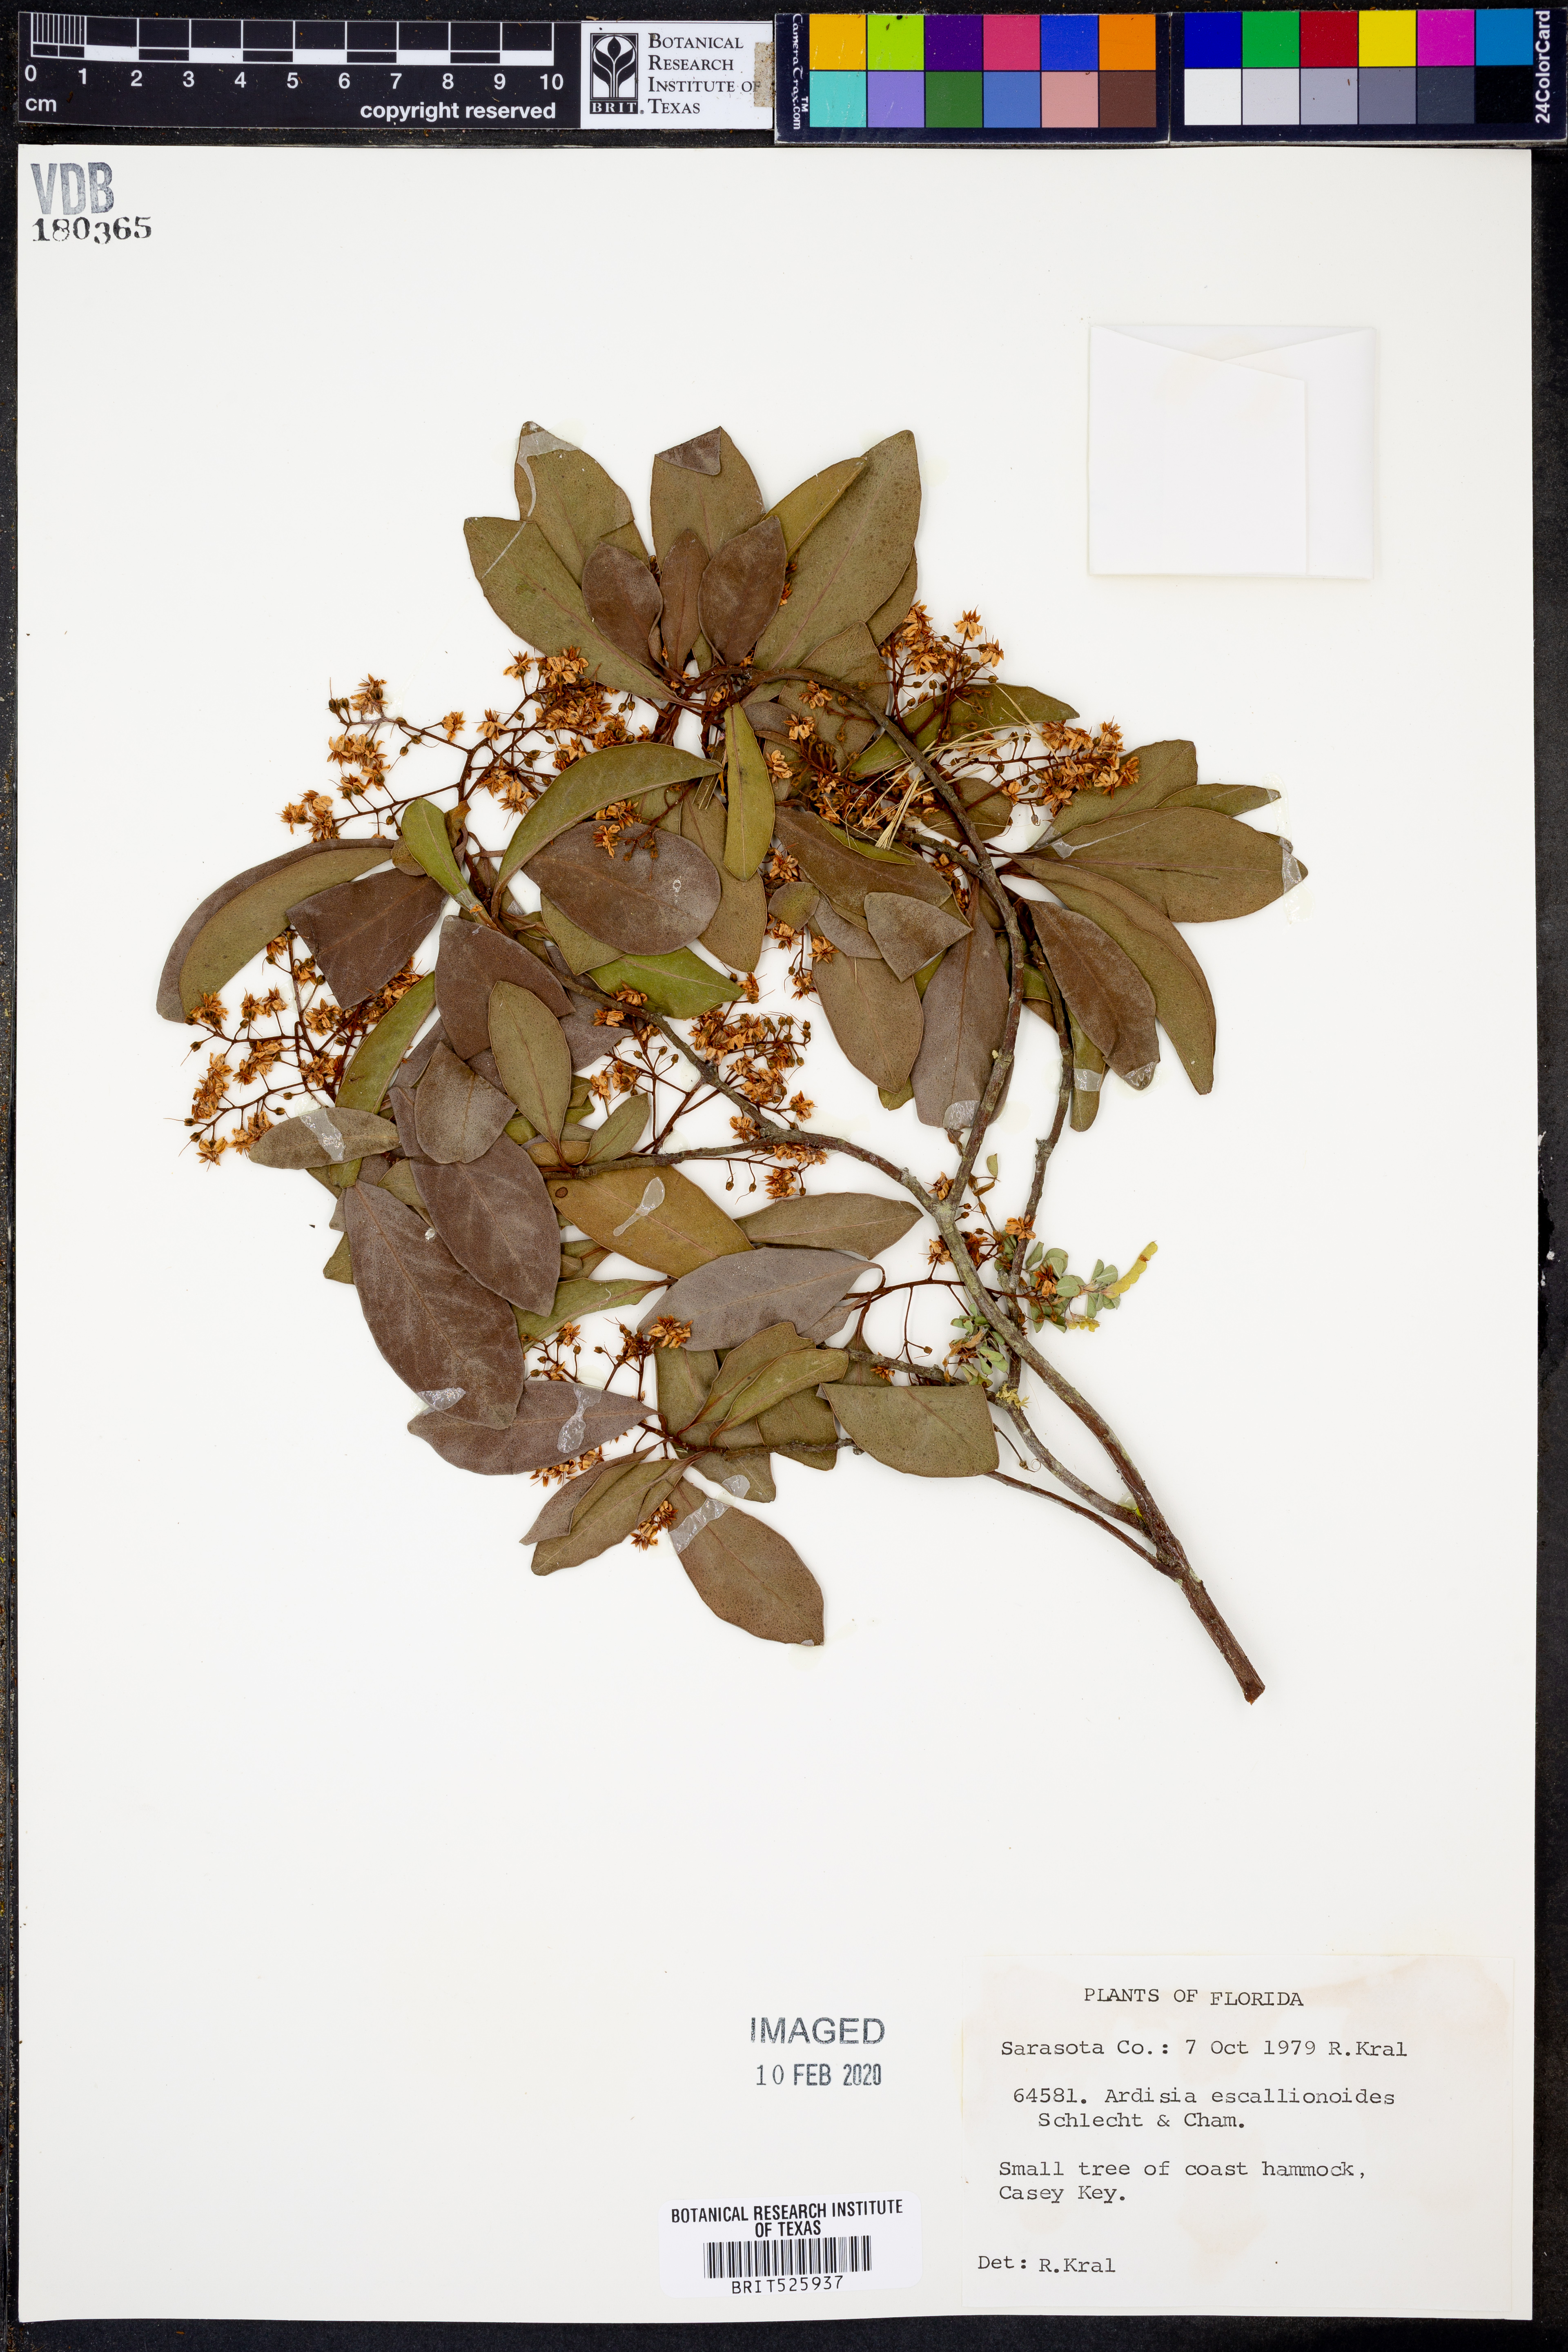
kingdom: Plantae
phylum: Tracheophyta
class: Magnoliopsida
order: Ericales
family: Primulaceae
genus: Ardisia
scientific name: Ardisia escallonioides
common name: Island marlberry
